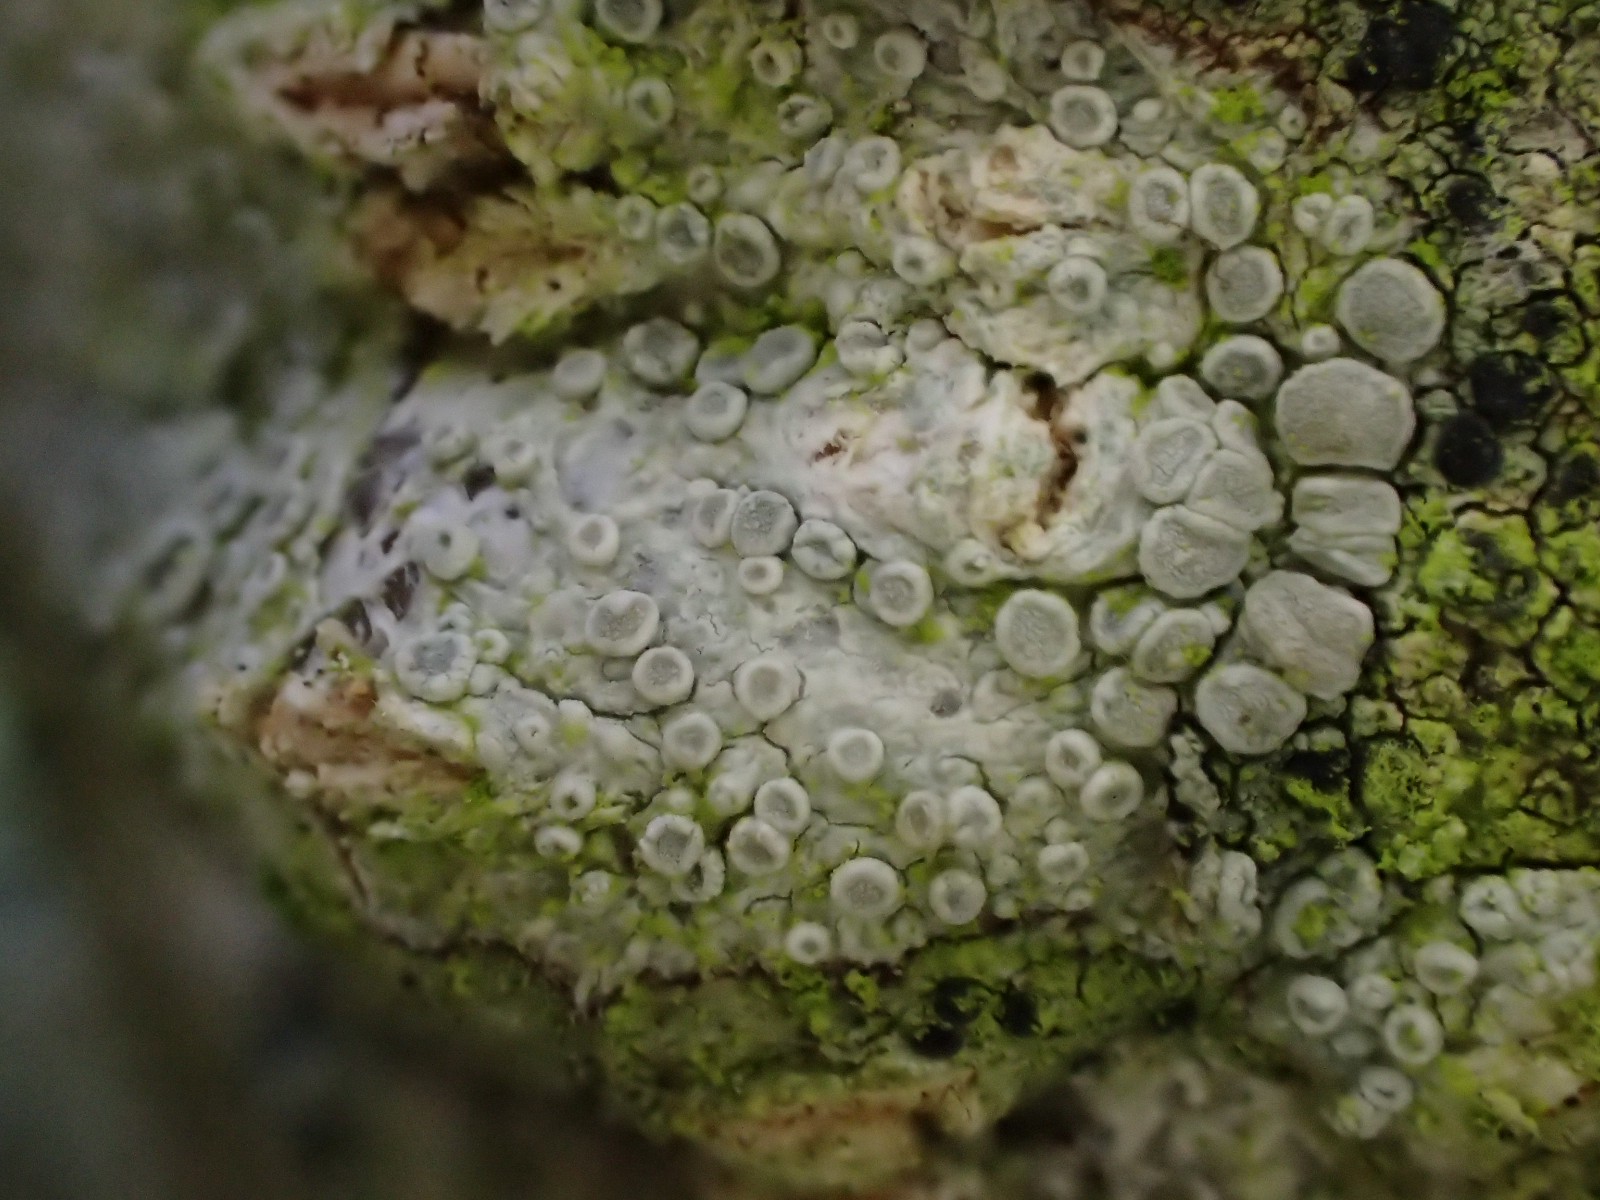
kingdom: Fungi
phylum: Ascomycota
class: Lecanoromycetes
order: Lecanorales
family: Lecanoraceae
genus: Glaucomaria
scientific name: Glaucomaria carpinea
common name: hviddugget kantskivelav
